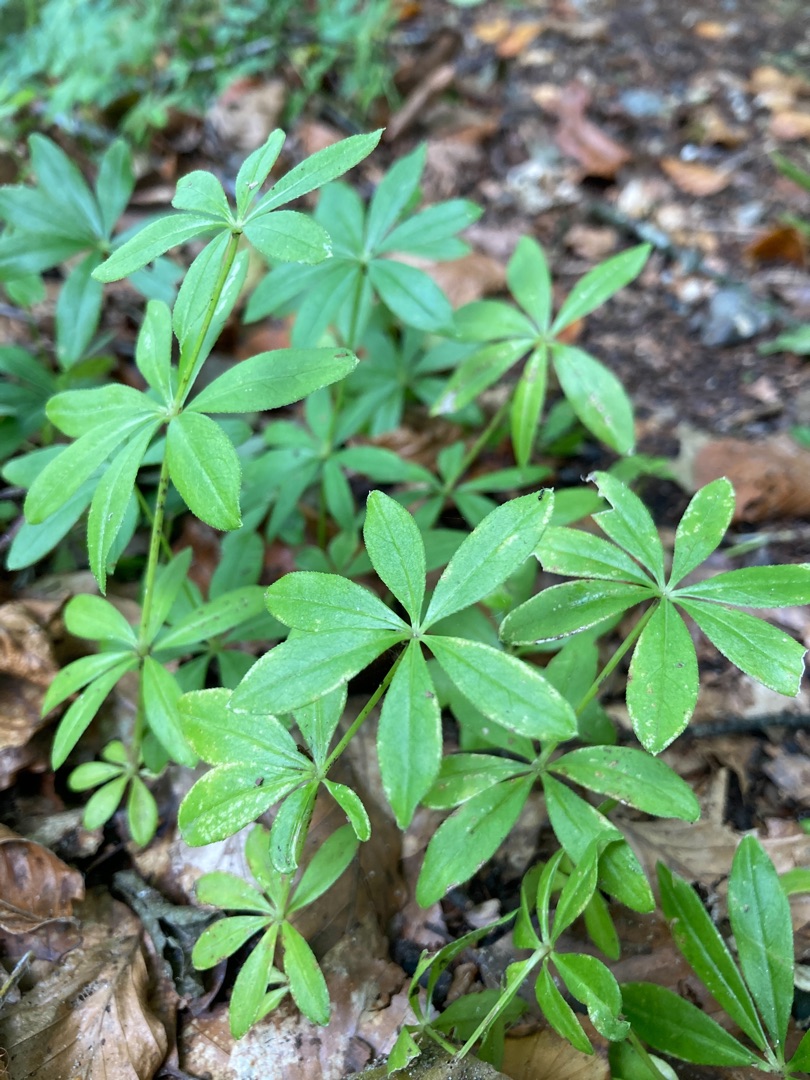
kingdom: Plantae
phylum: Tracheophyta
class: Magnoliopsida
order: Gentianales
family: Rubiaceae
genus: Galium
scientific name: Galium odoratum
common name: Skovmærke
